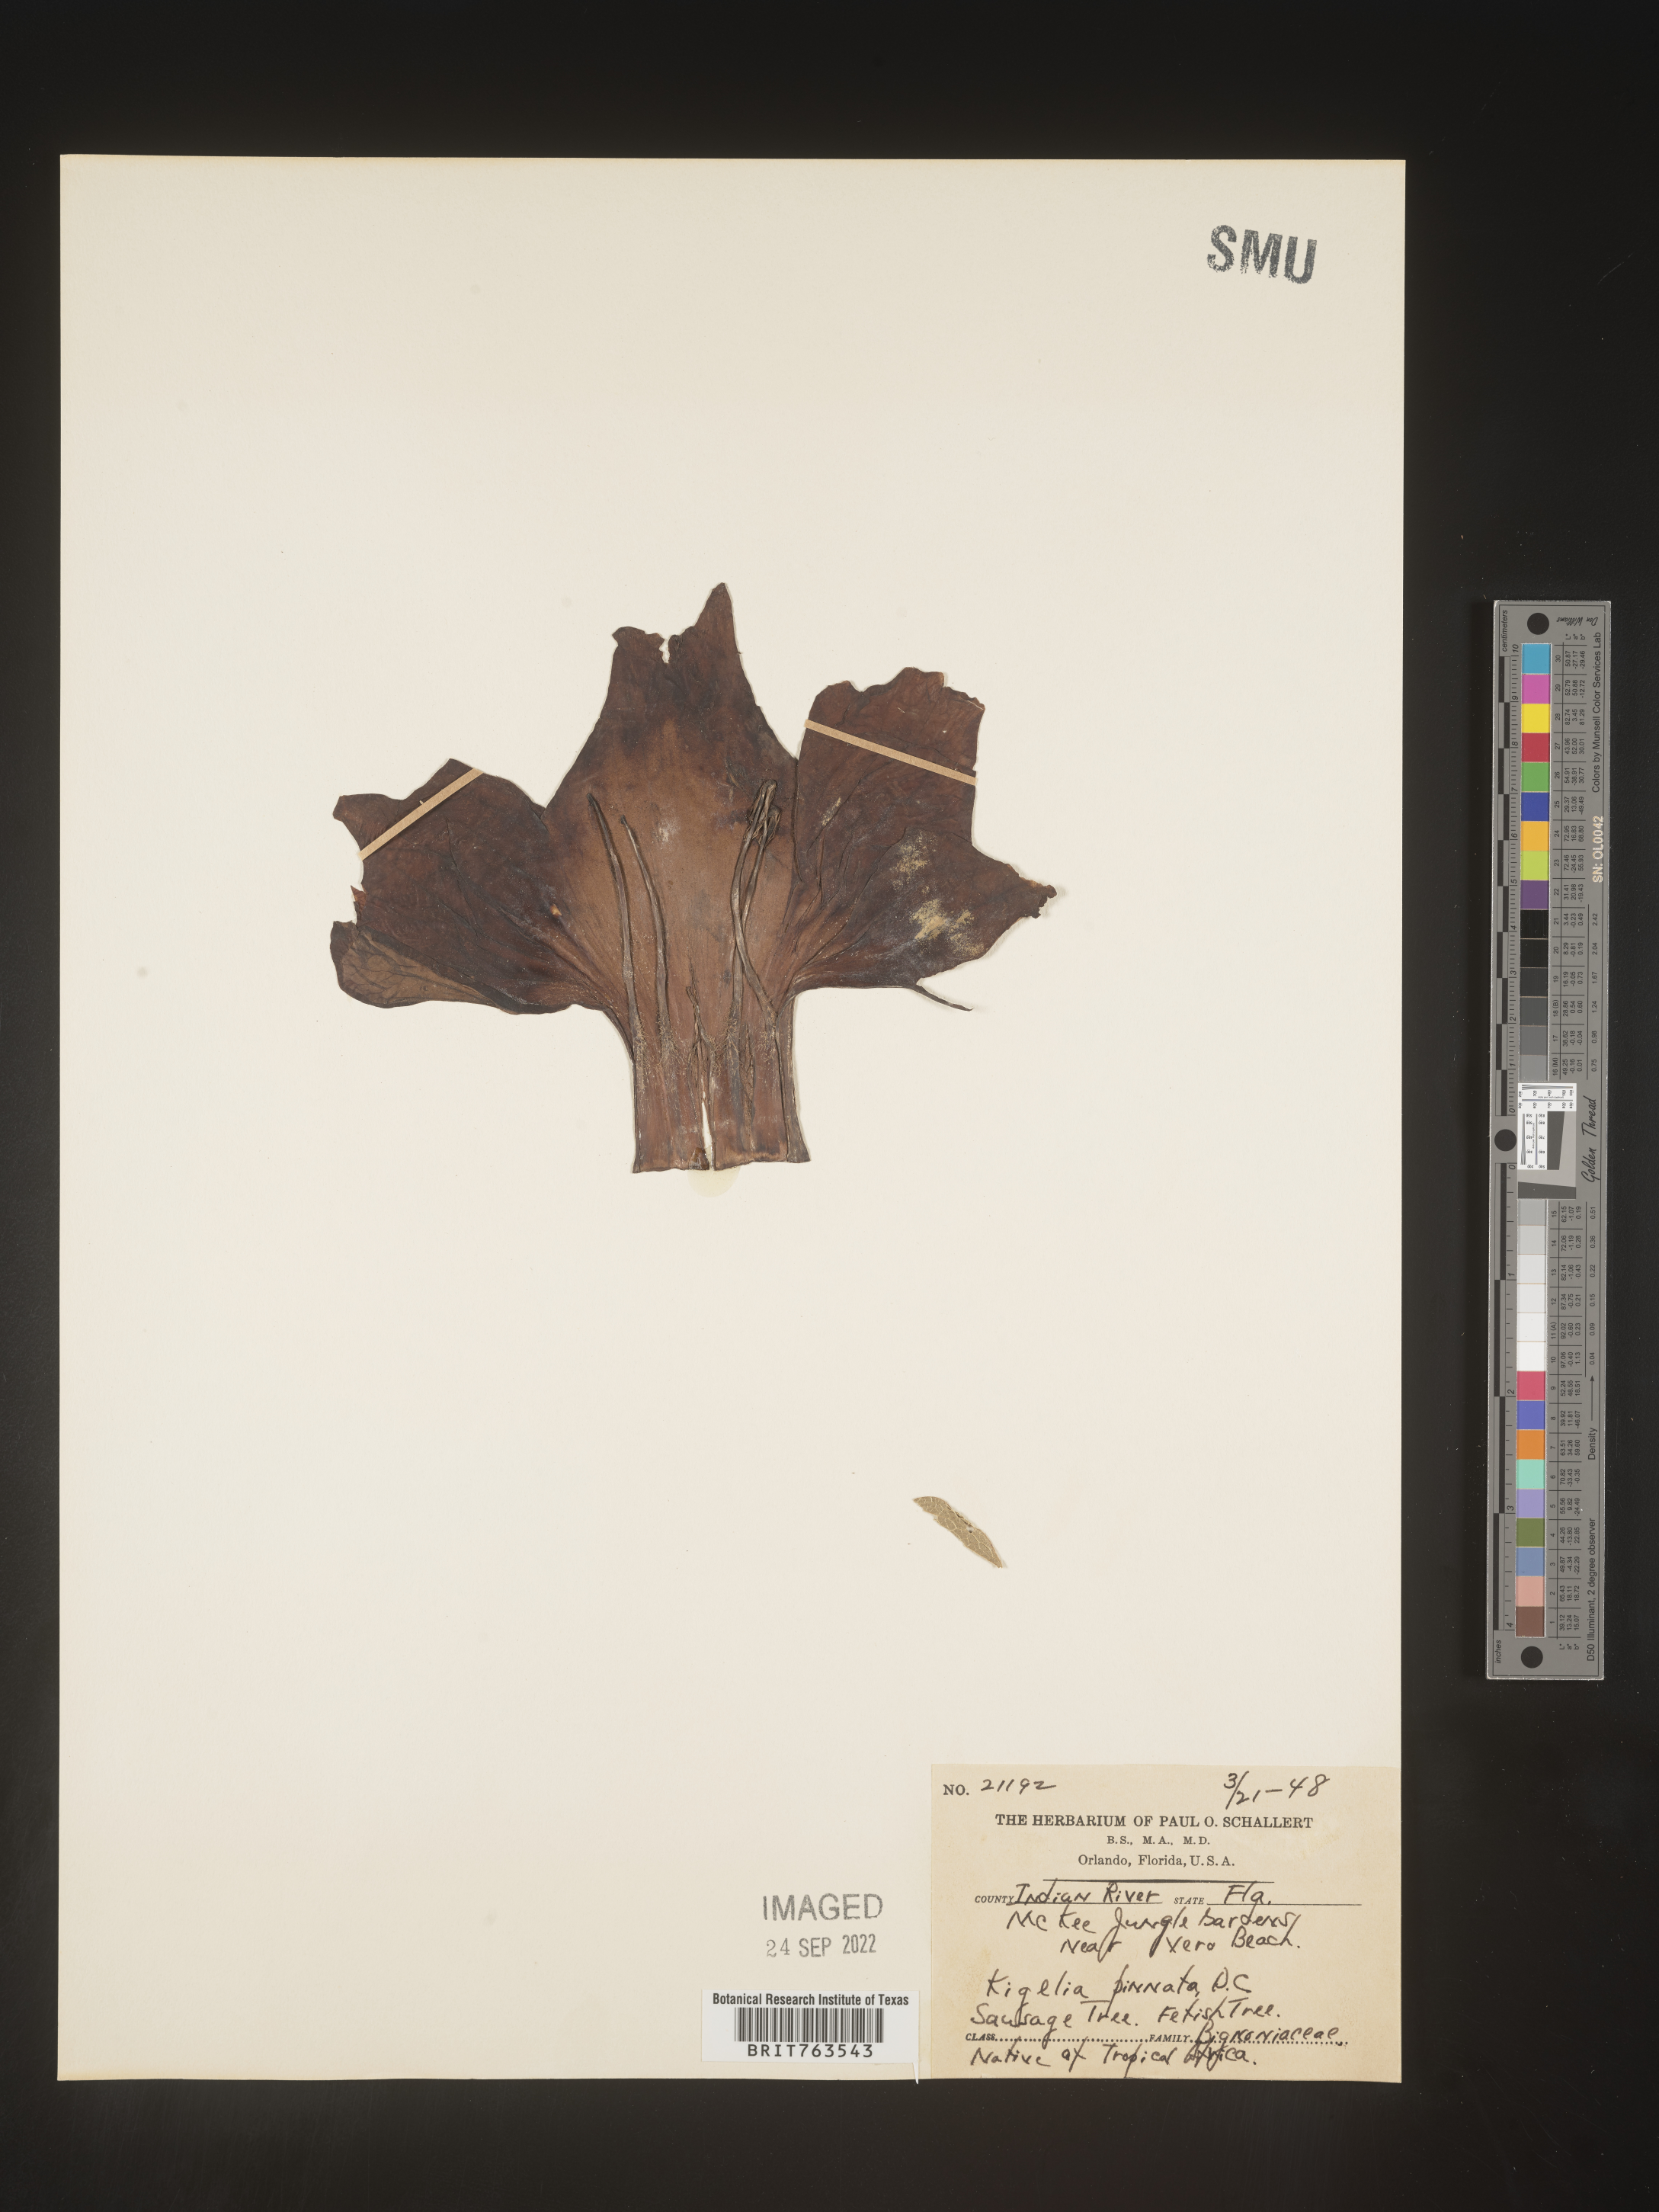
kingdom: Plantae
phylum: Tracheophyta
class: Magnoliopsida
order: Lamiales
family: Bignoniaceae
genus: Kigelia
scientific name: Kigelia
